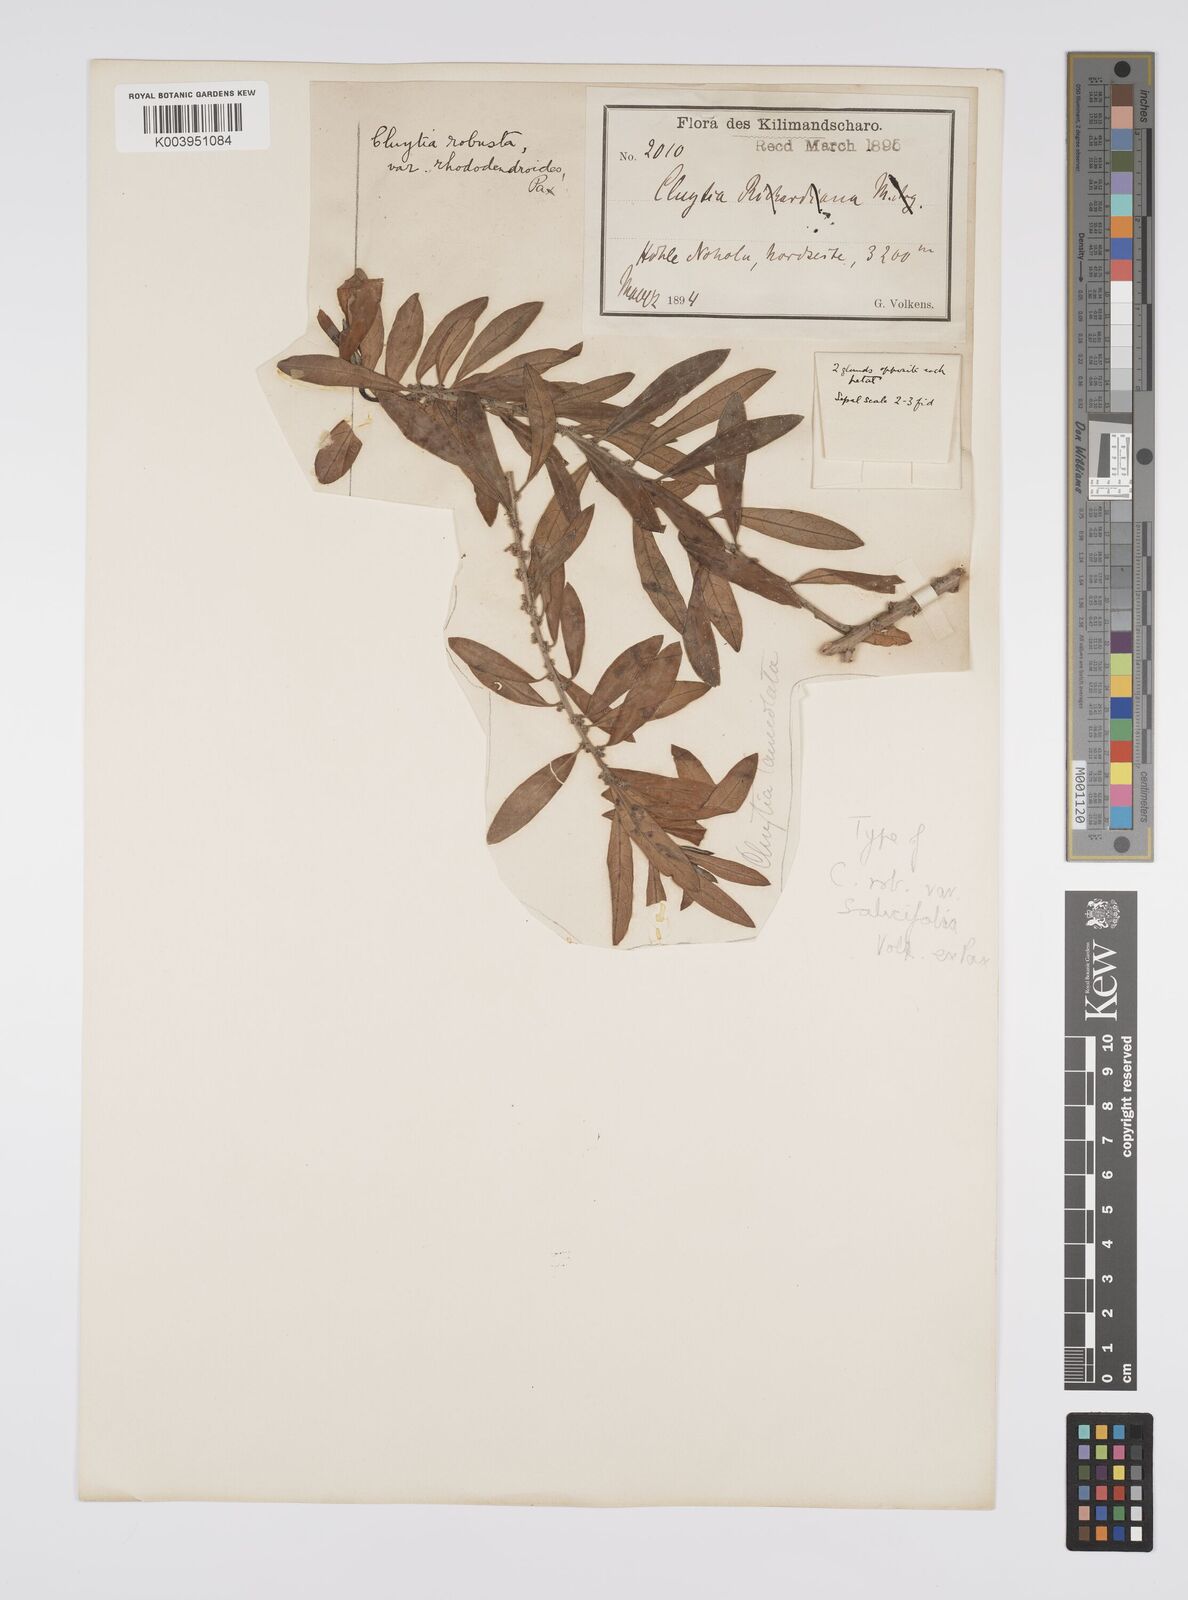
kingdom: Plantae
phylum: Tracheophyta
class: Magnoliopsida
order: Malpighiales
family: Peraceae
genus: Clutia
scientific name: Clutia kilimandscharica
